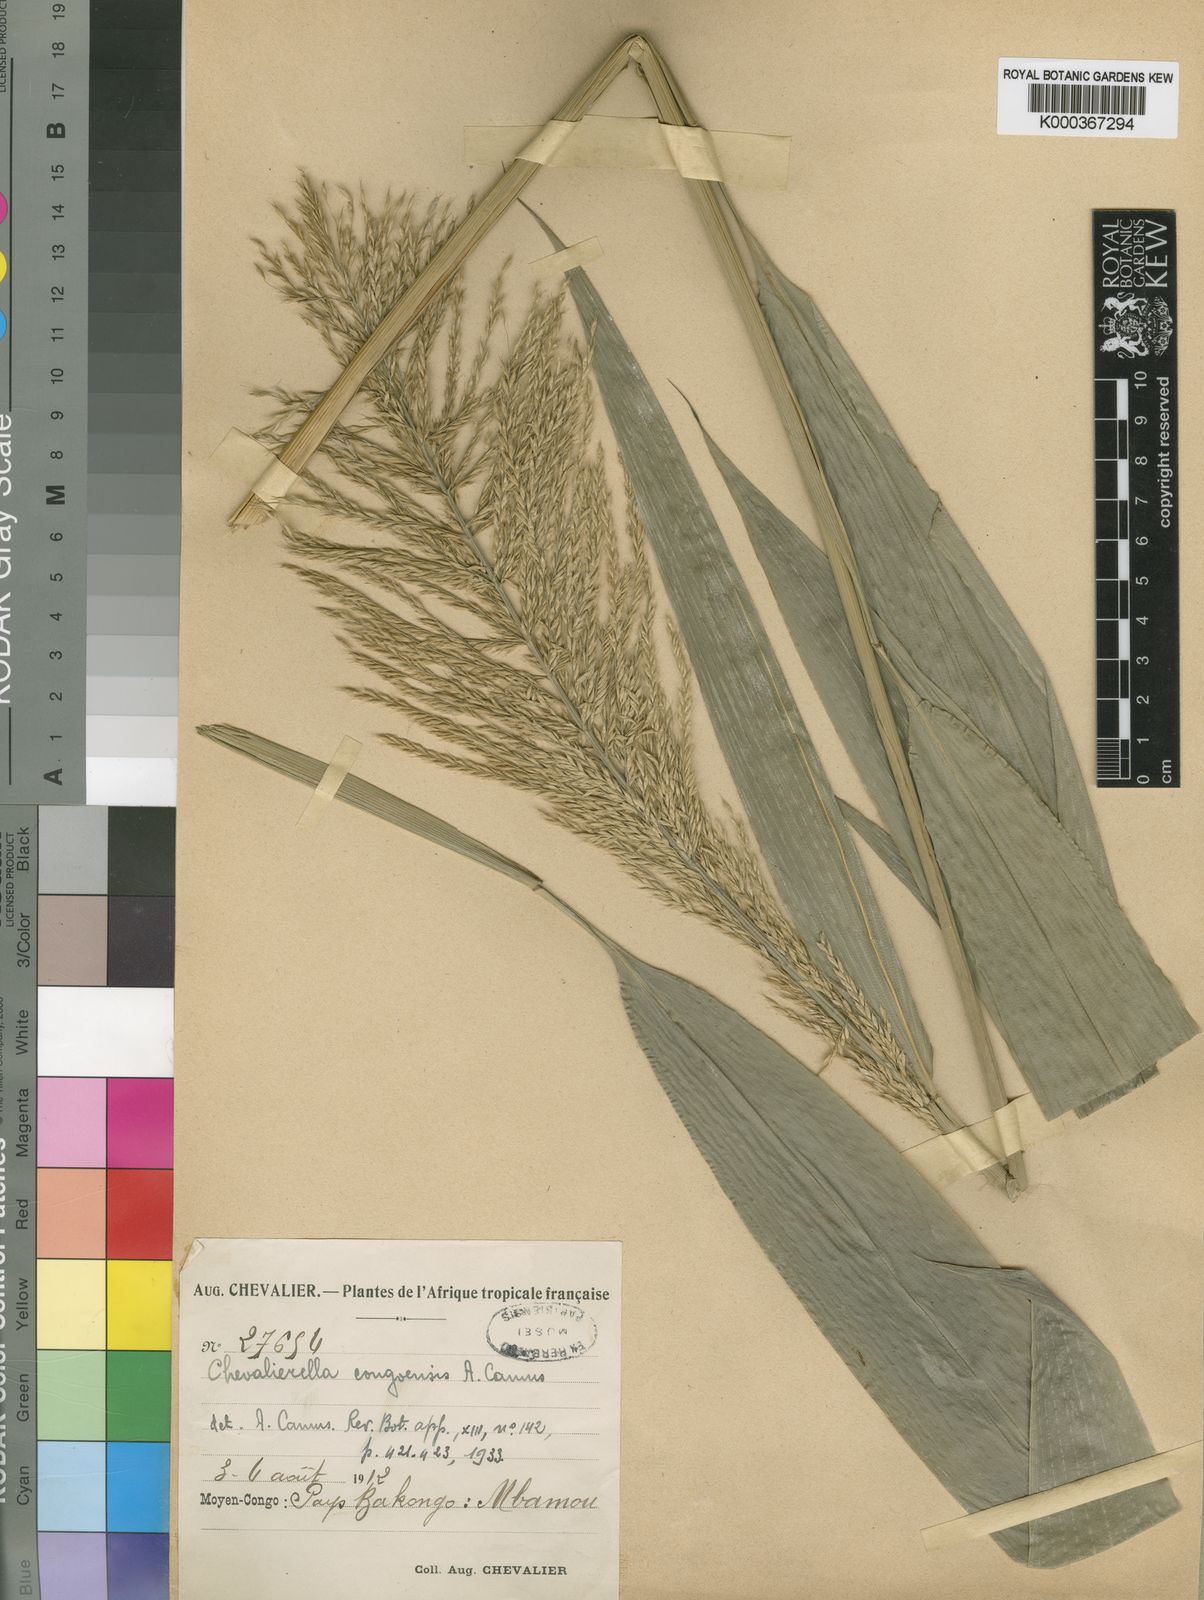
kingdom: Plantae
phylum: Tracheophyta
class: Liliopsida
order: Poales
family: Poaceae
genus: Chevalierella
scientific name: Chevalierella
